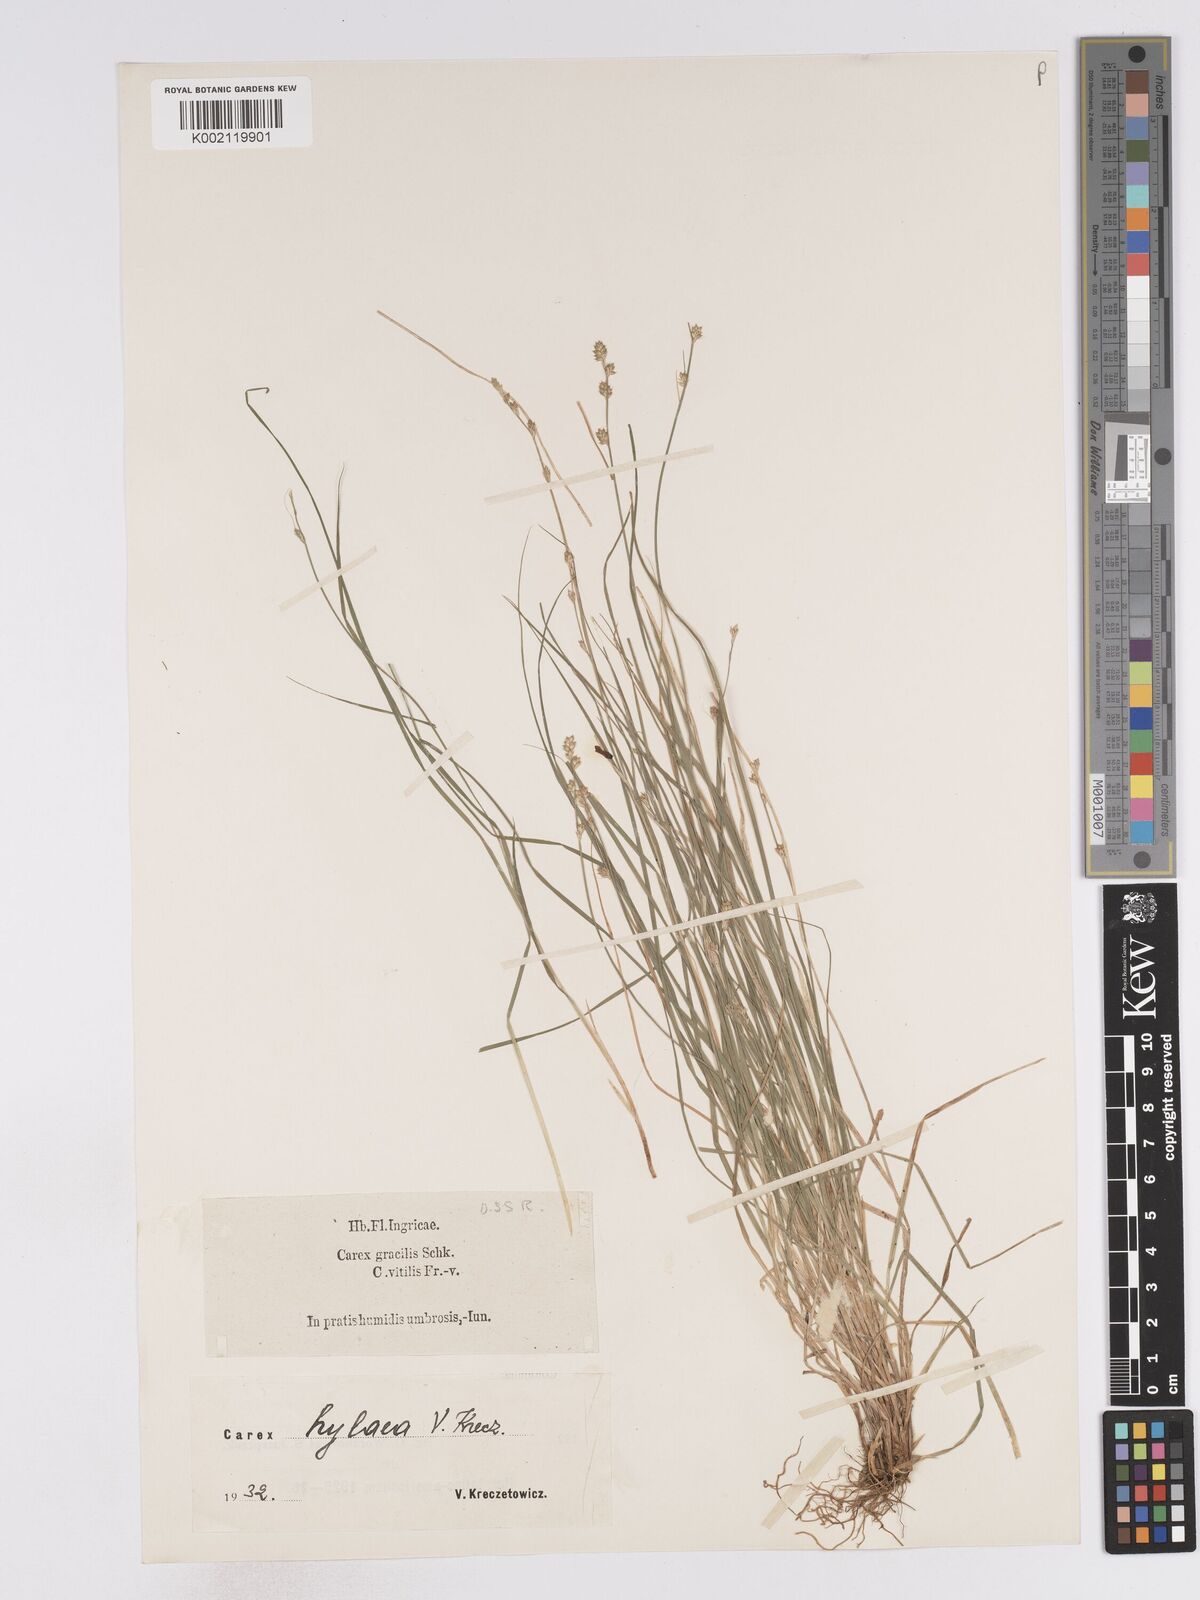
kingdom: Plantae
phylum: Tracheophyta
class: Liliopsida
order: Poales
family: Cyperaceae
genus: Carex
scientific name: Carex canescens
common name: White sedge
